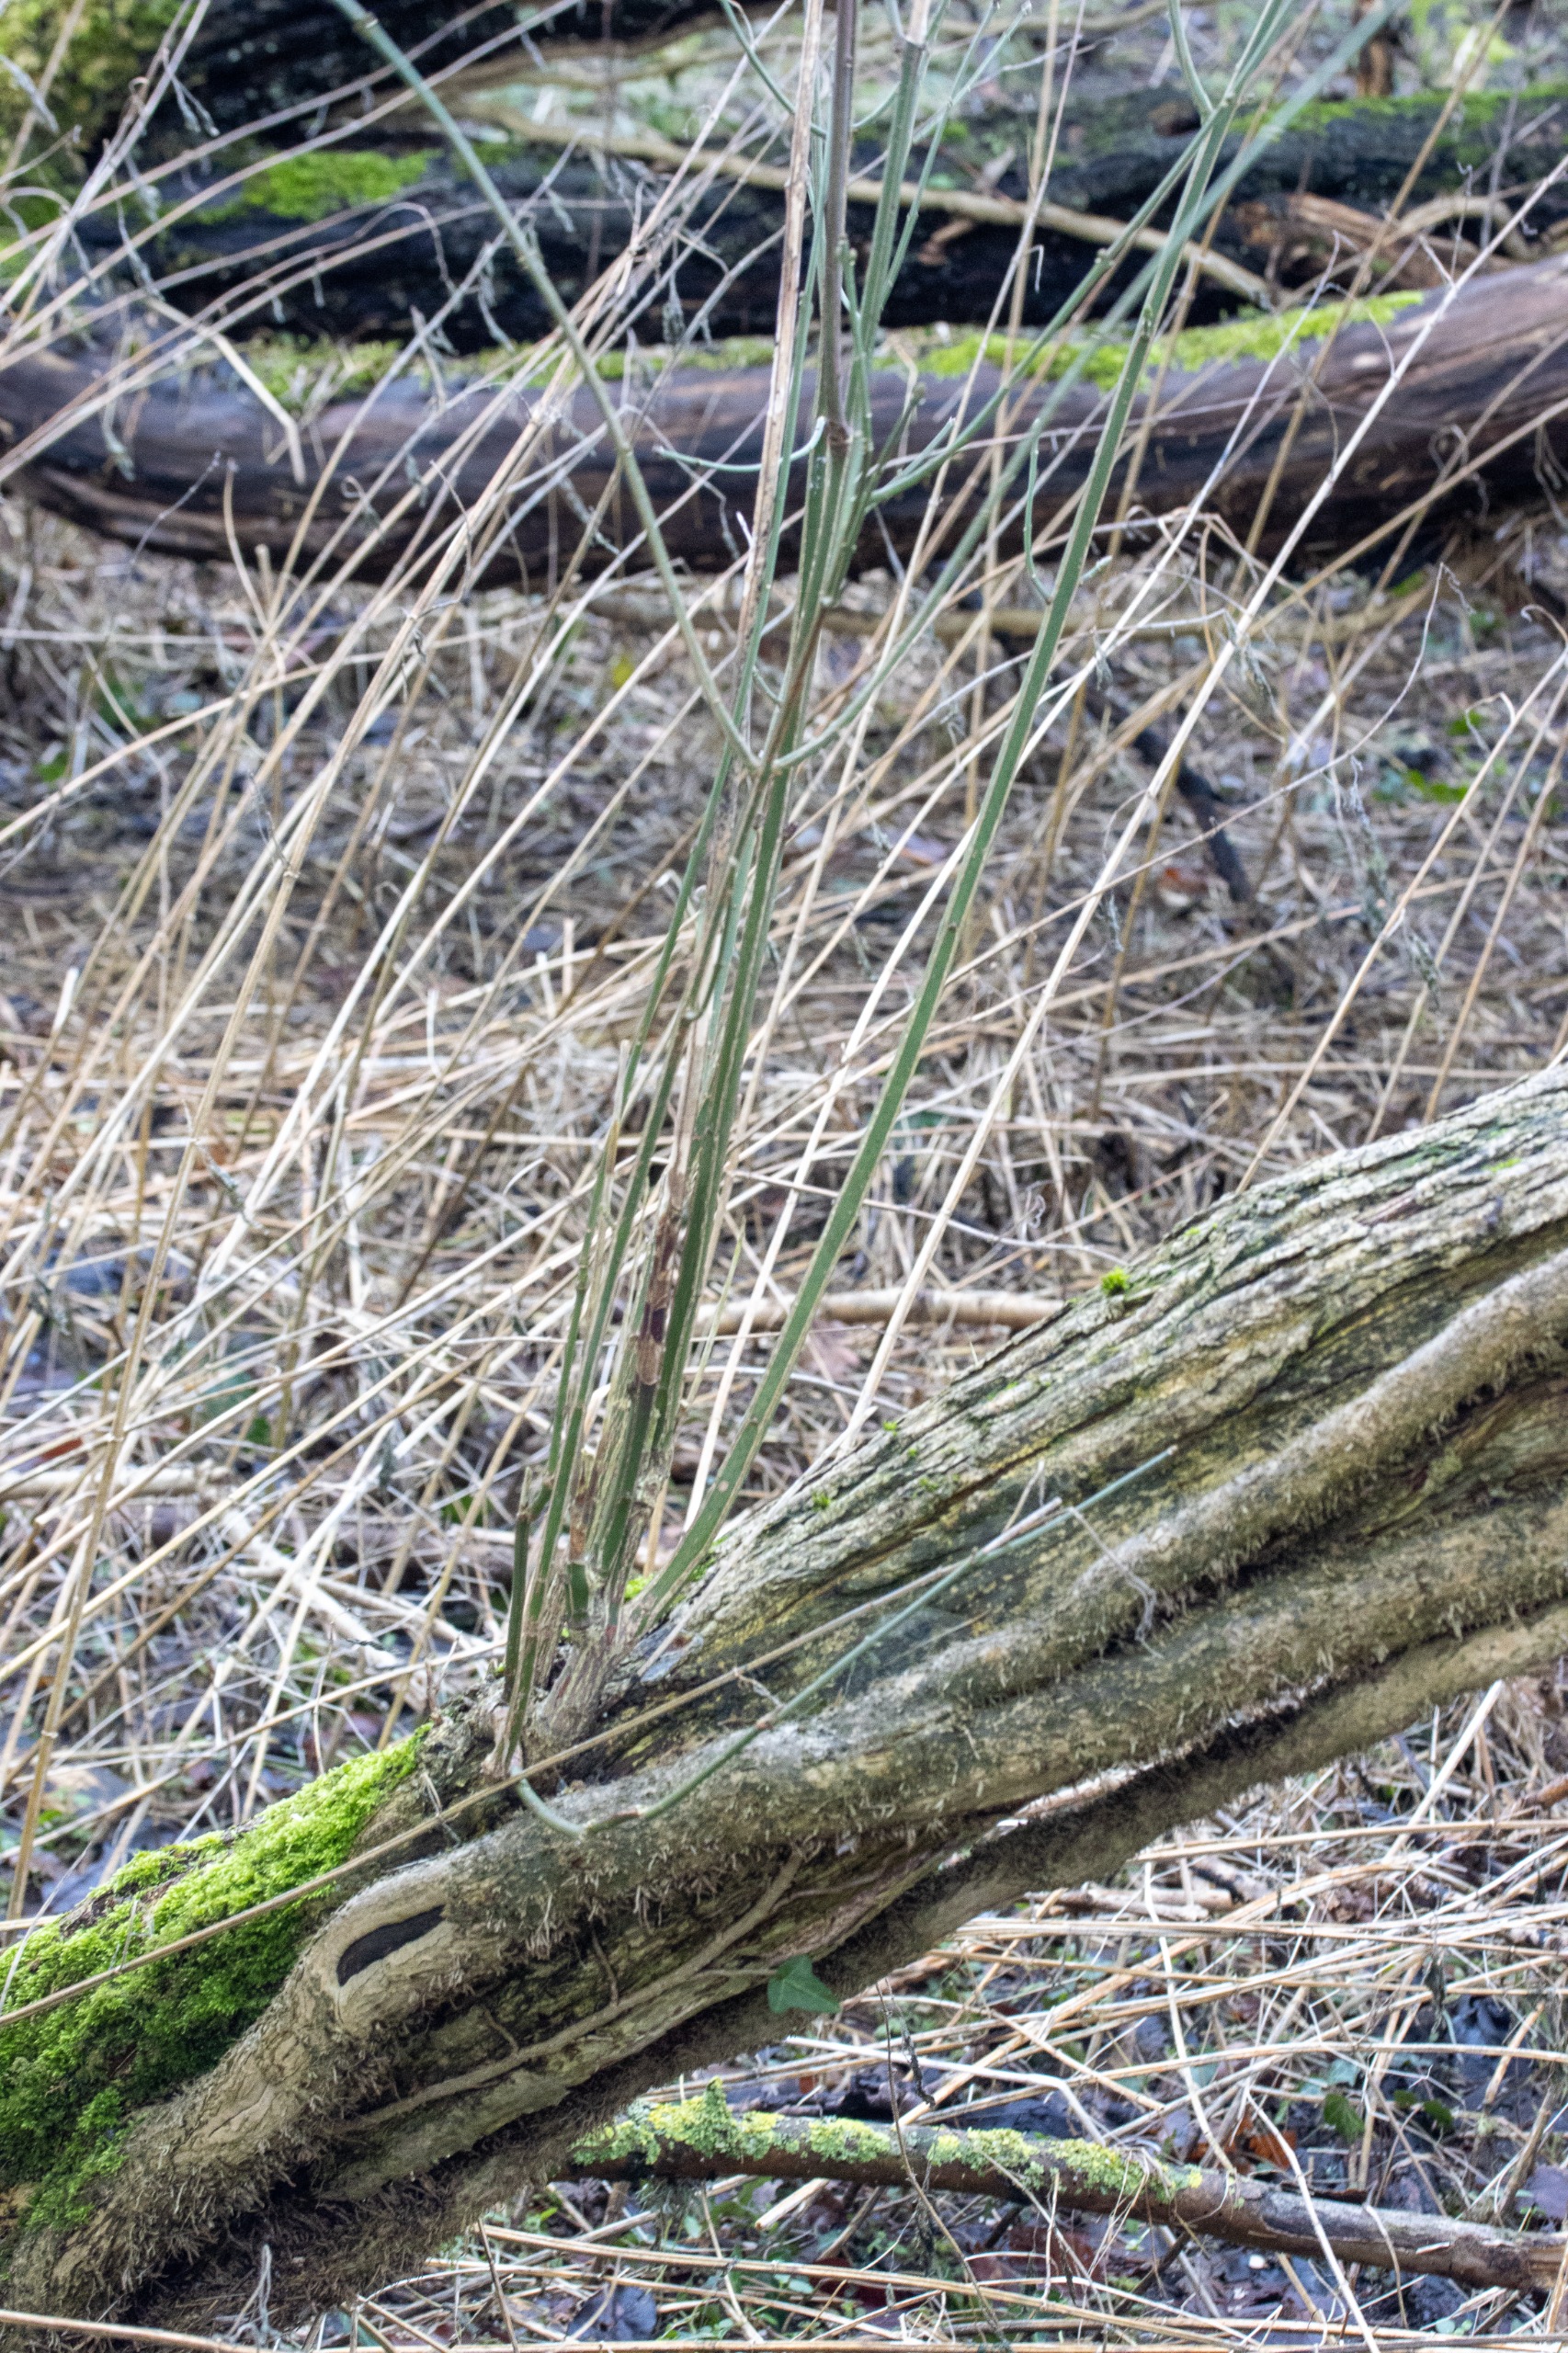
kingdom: Plantae
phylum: Tracheophyta
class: Magnoliopsida
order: Celastrales
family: Celastraceae
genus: Euonymus
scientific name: Euonymus europaeus
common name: Benved
